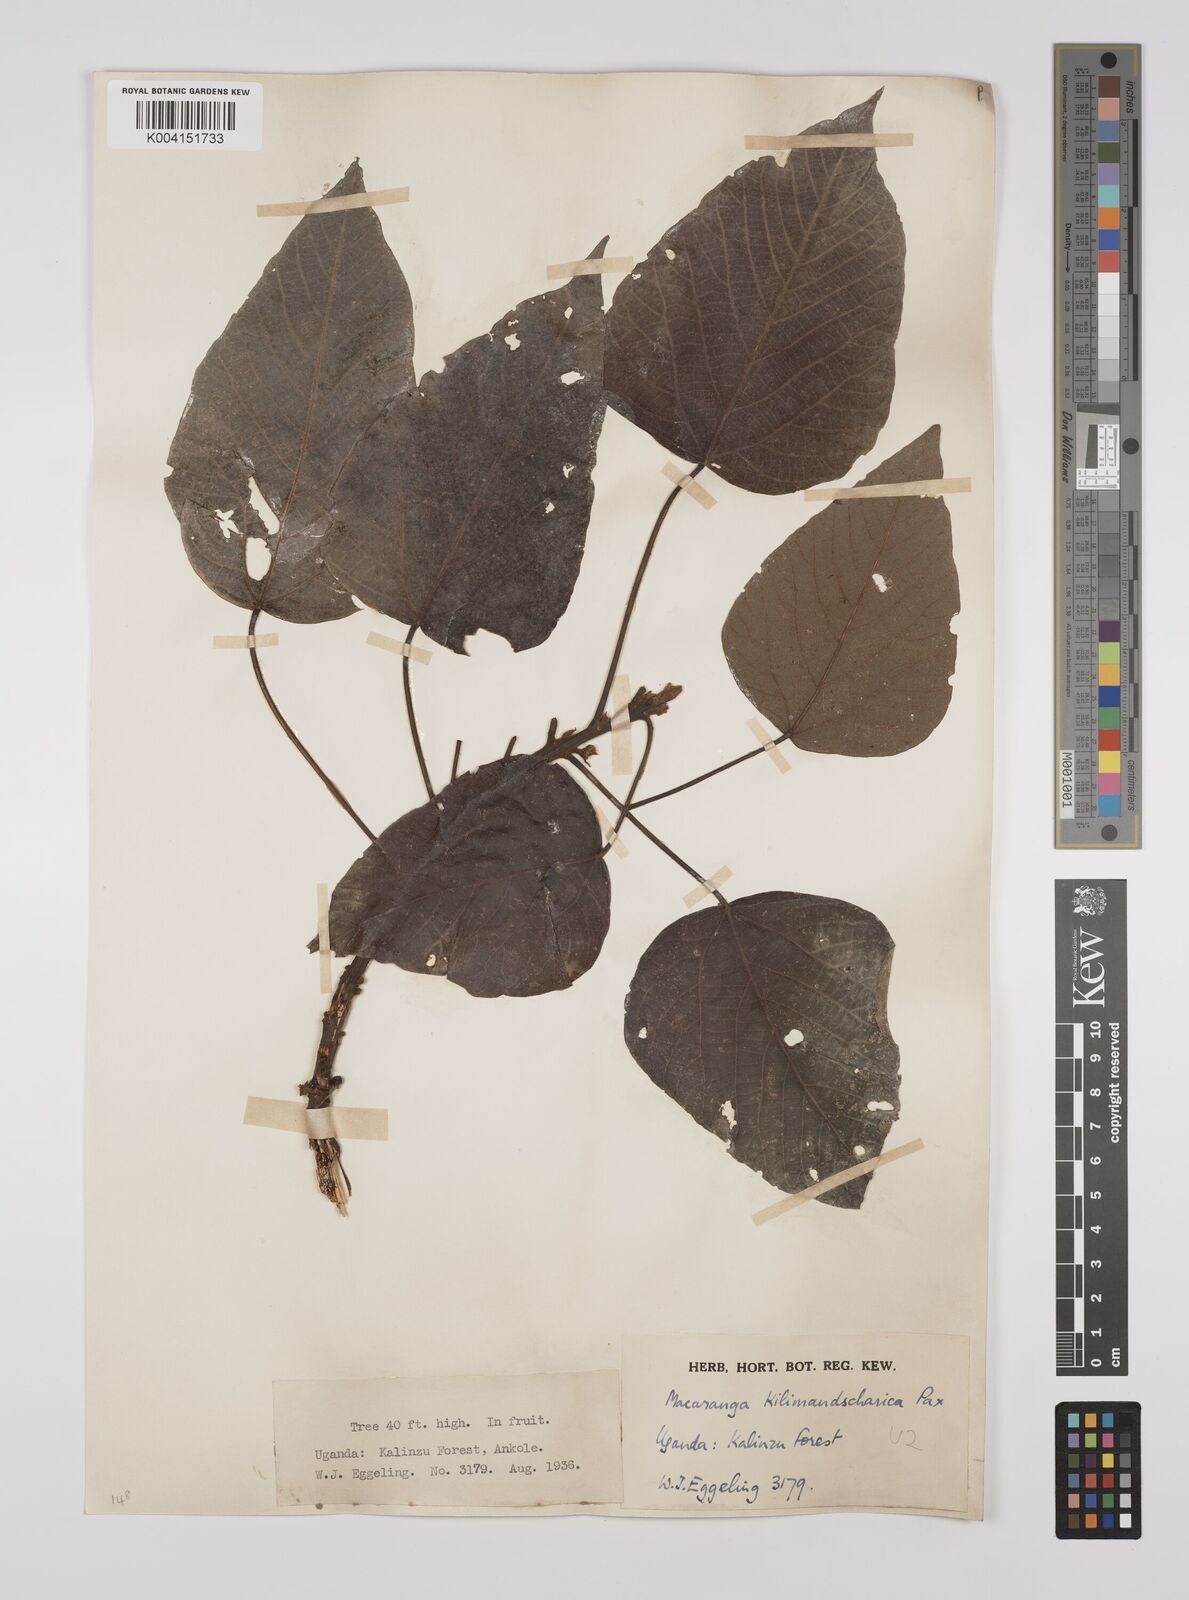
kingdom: Plantae
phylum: Tracheophyta
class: Magnoliopsida
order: Malpighiales
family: Euphorbiaceae
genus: Macaranga
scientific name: Macaranga
